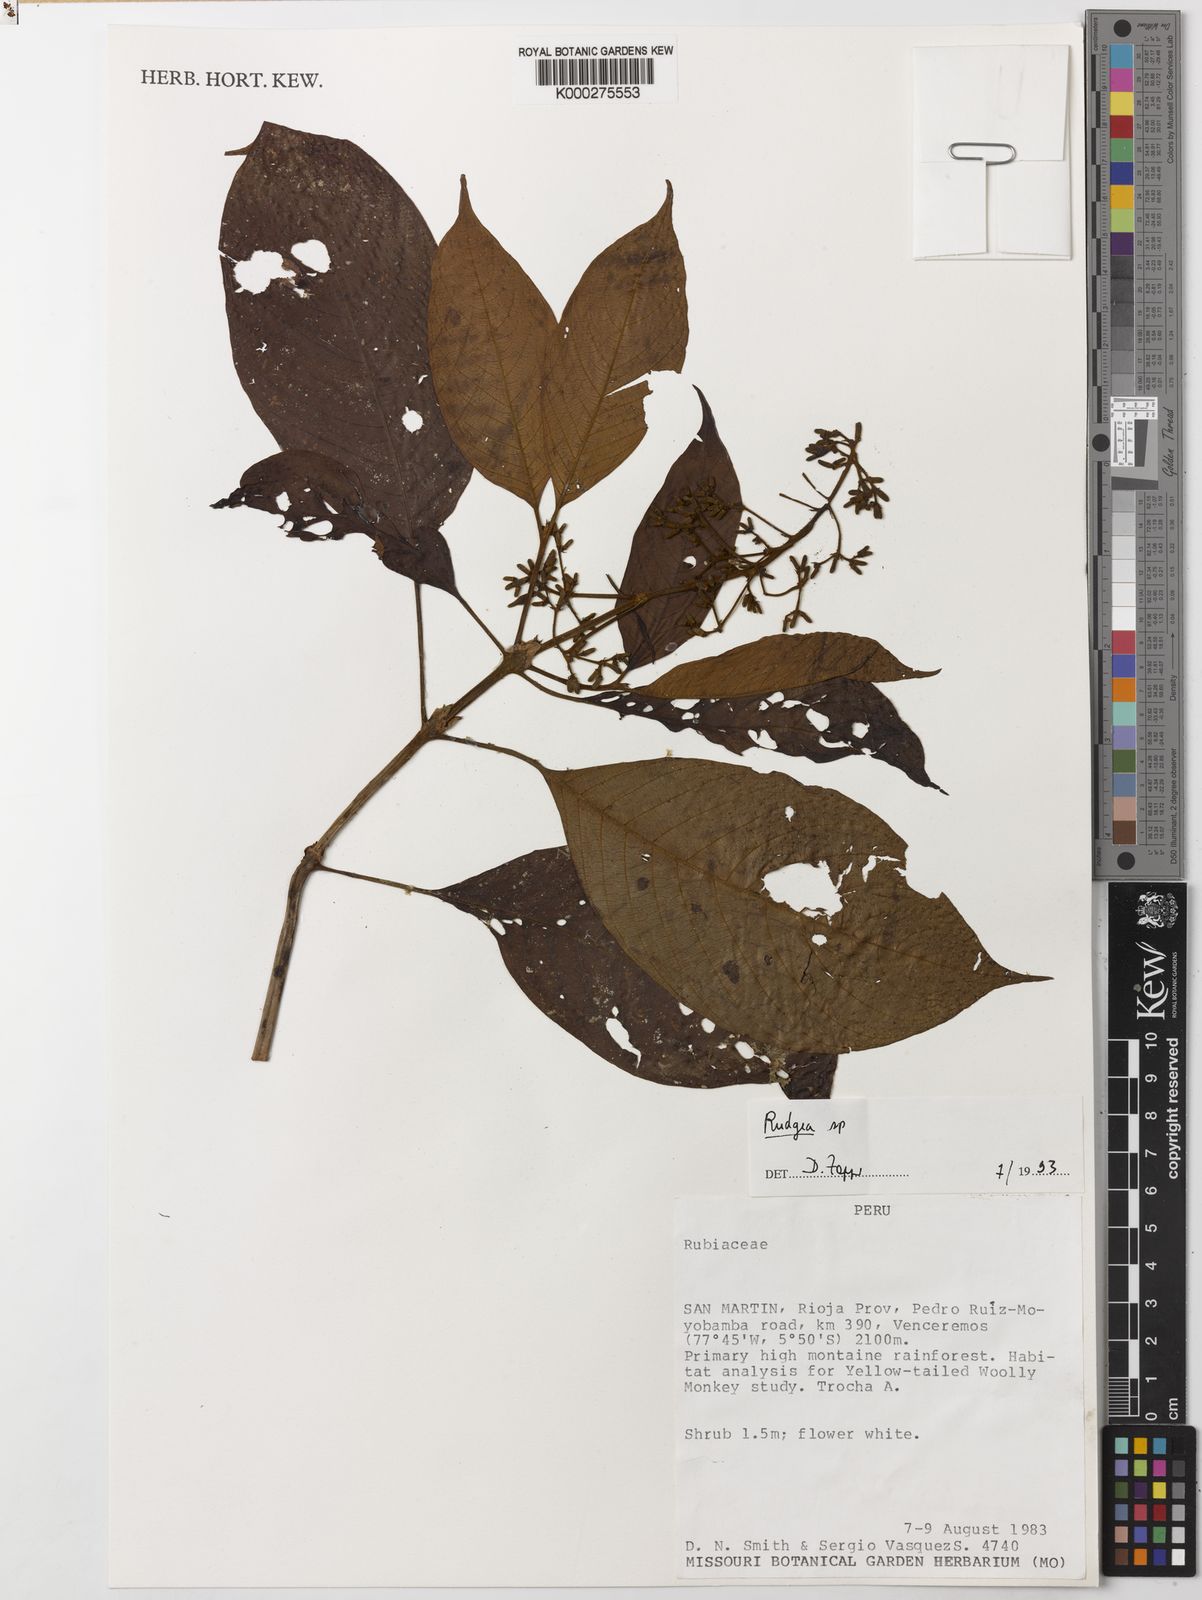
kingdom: Plantae
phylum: Tracheophyta
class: Magnoliopsida
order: Gentianales
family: Rubiaceae
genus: Rudgea
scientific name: Rudgea
